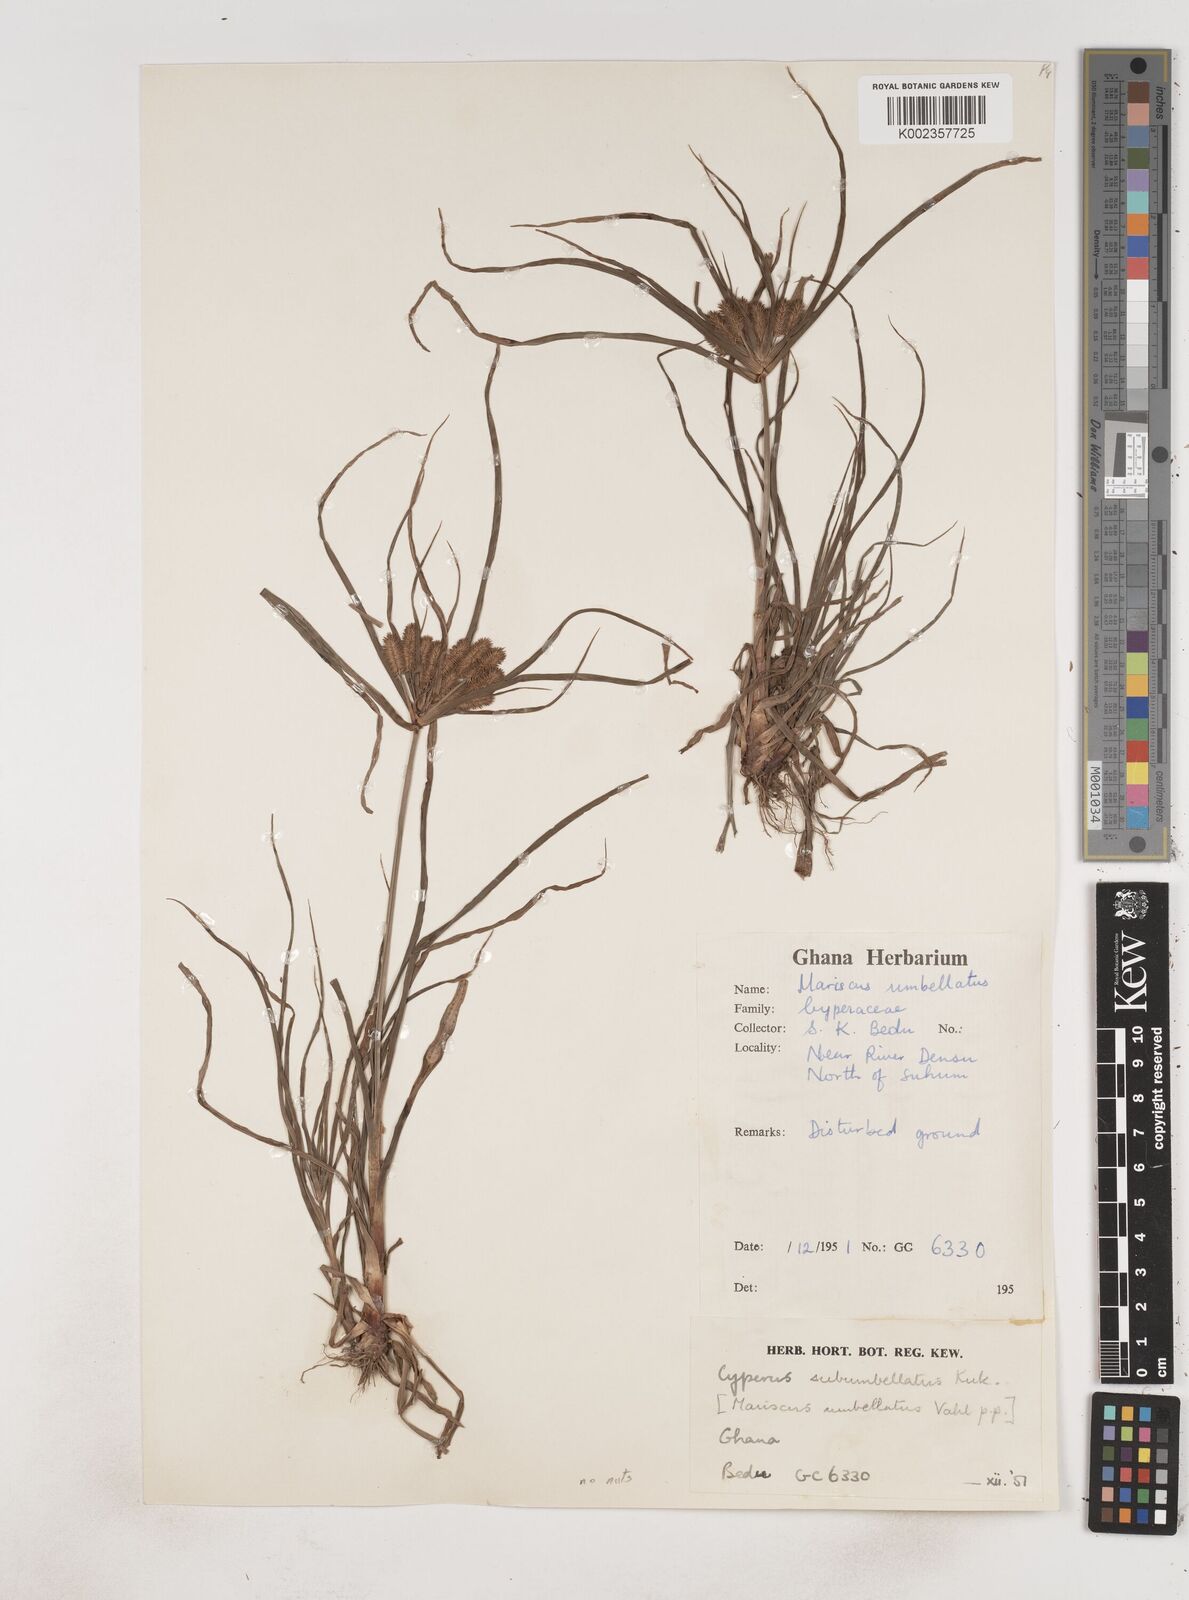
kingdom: Plantae
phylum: Tracheophyta
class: Liliopsida
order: Poales
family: Cyperaceae
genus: Cyperus
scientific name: Cyperus cyperoides
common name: Pacific island flat sedge
